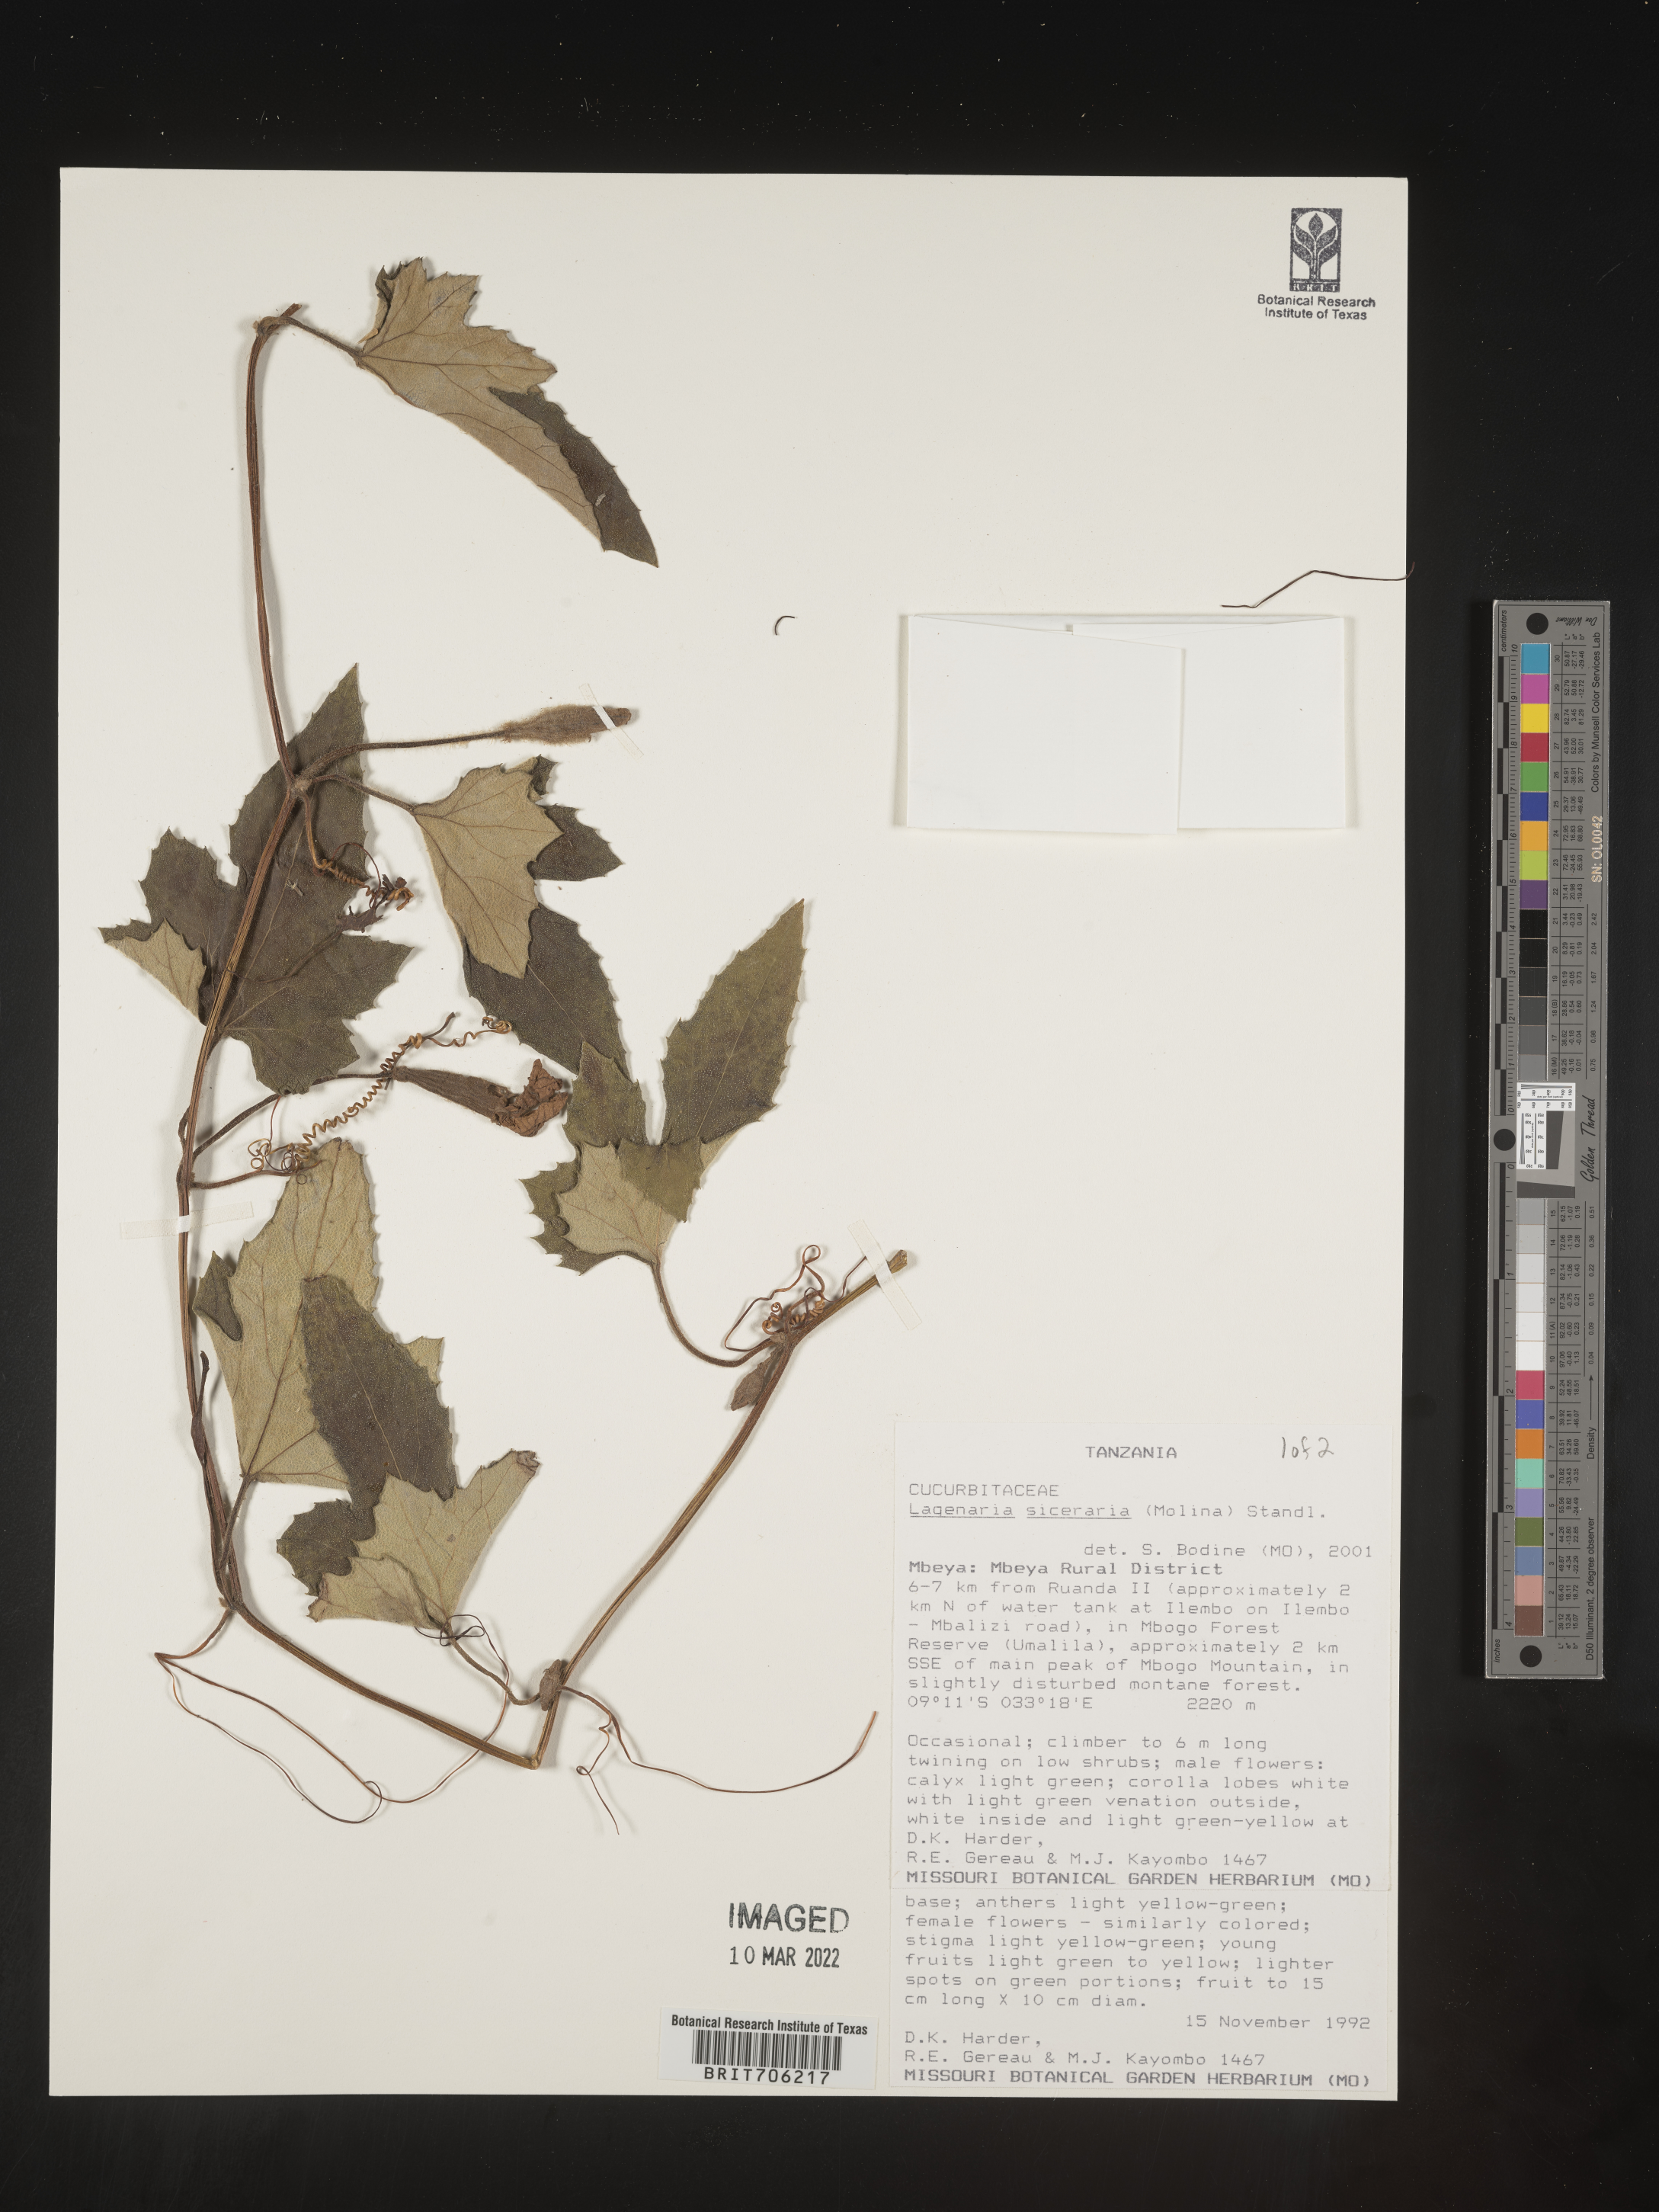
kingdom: Plantae
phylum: Tracheophyta
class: Magnoliopsida
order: Cucurbitales
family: Cucurbitaceae
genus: Lagenaria
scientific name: Lagenaria
